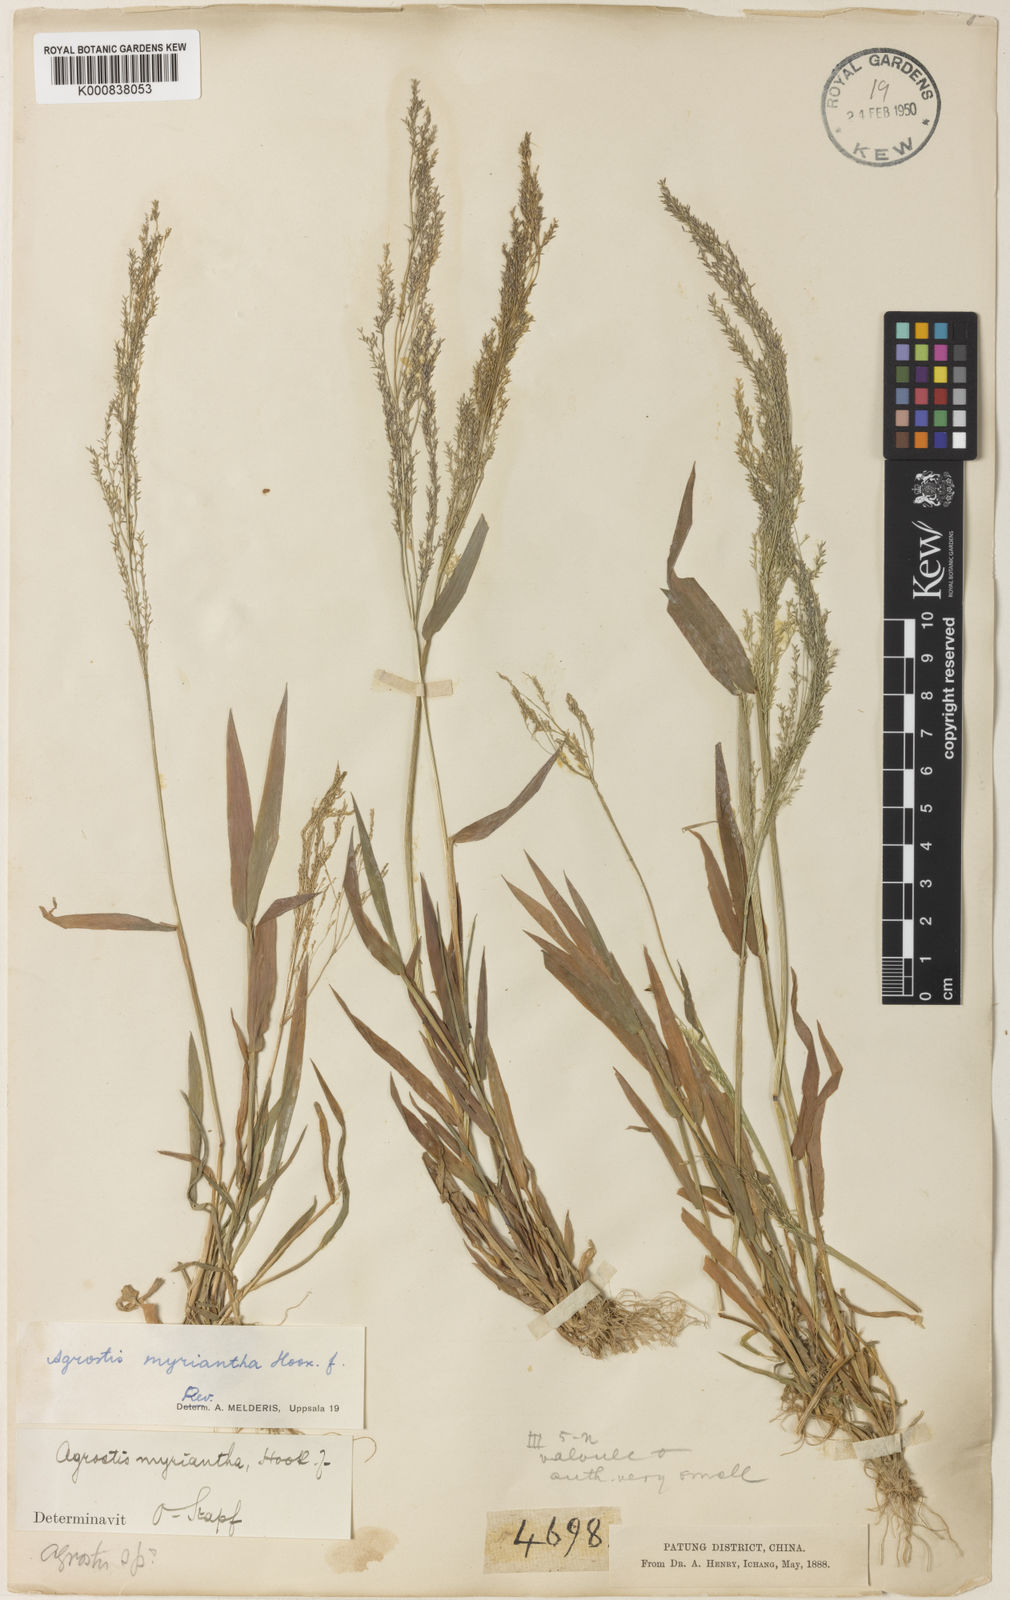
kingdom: Plantae
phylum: Tracheophyta
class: Liliopsida
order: Poales
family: Poaceae
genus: Agrostis
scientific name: Agrostis micrantha
